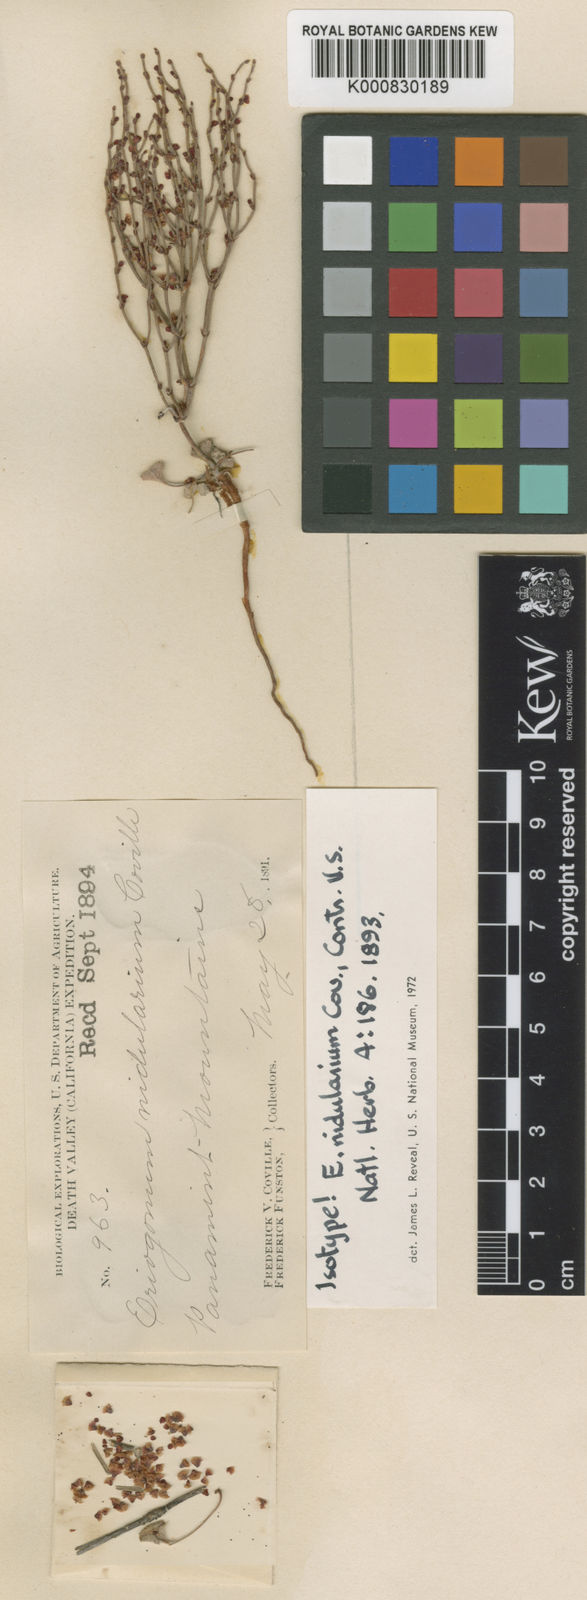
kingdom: Plantae
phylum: Tracheophyta
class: Magnoliopsida
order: Caryophyllales
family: Polygonaceae
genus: Eriogonum
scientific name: Eriogonum nidularium
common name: Bird's-nest wild buckwheat
